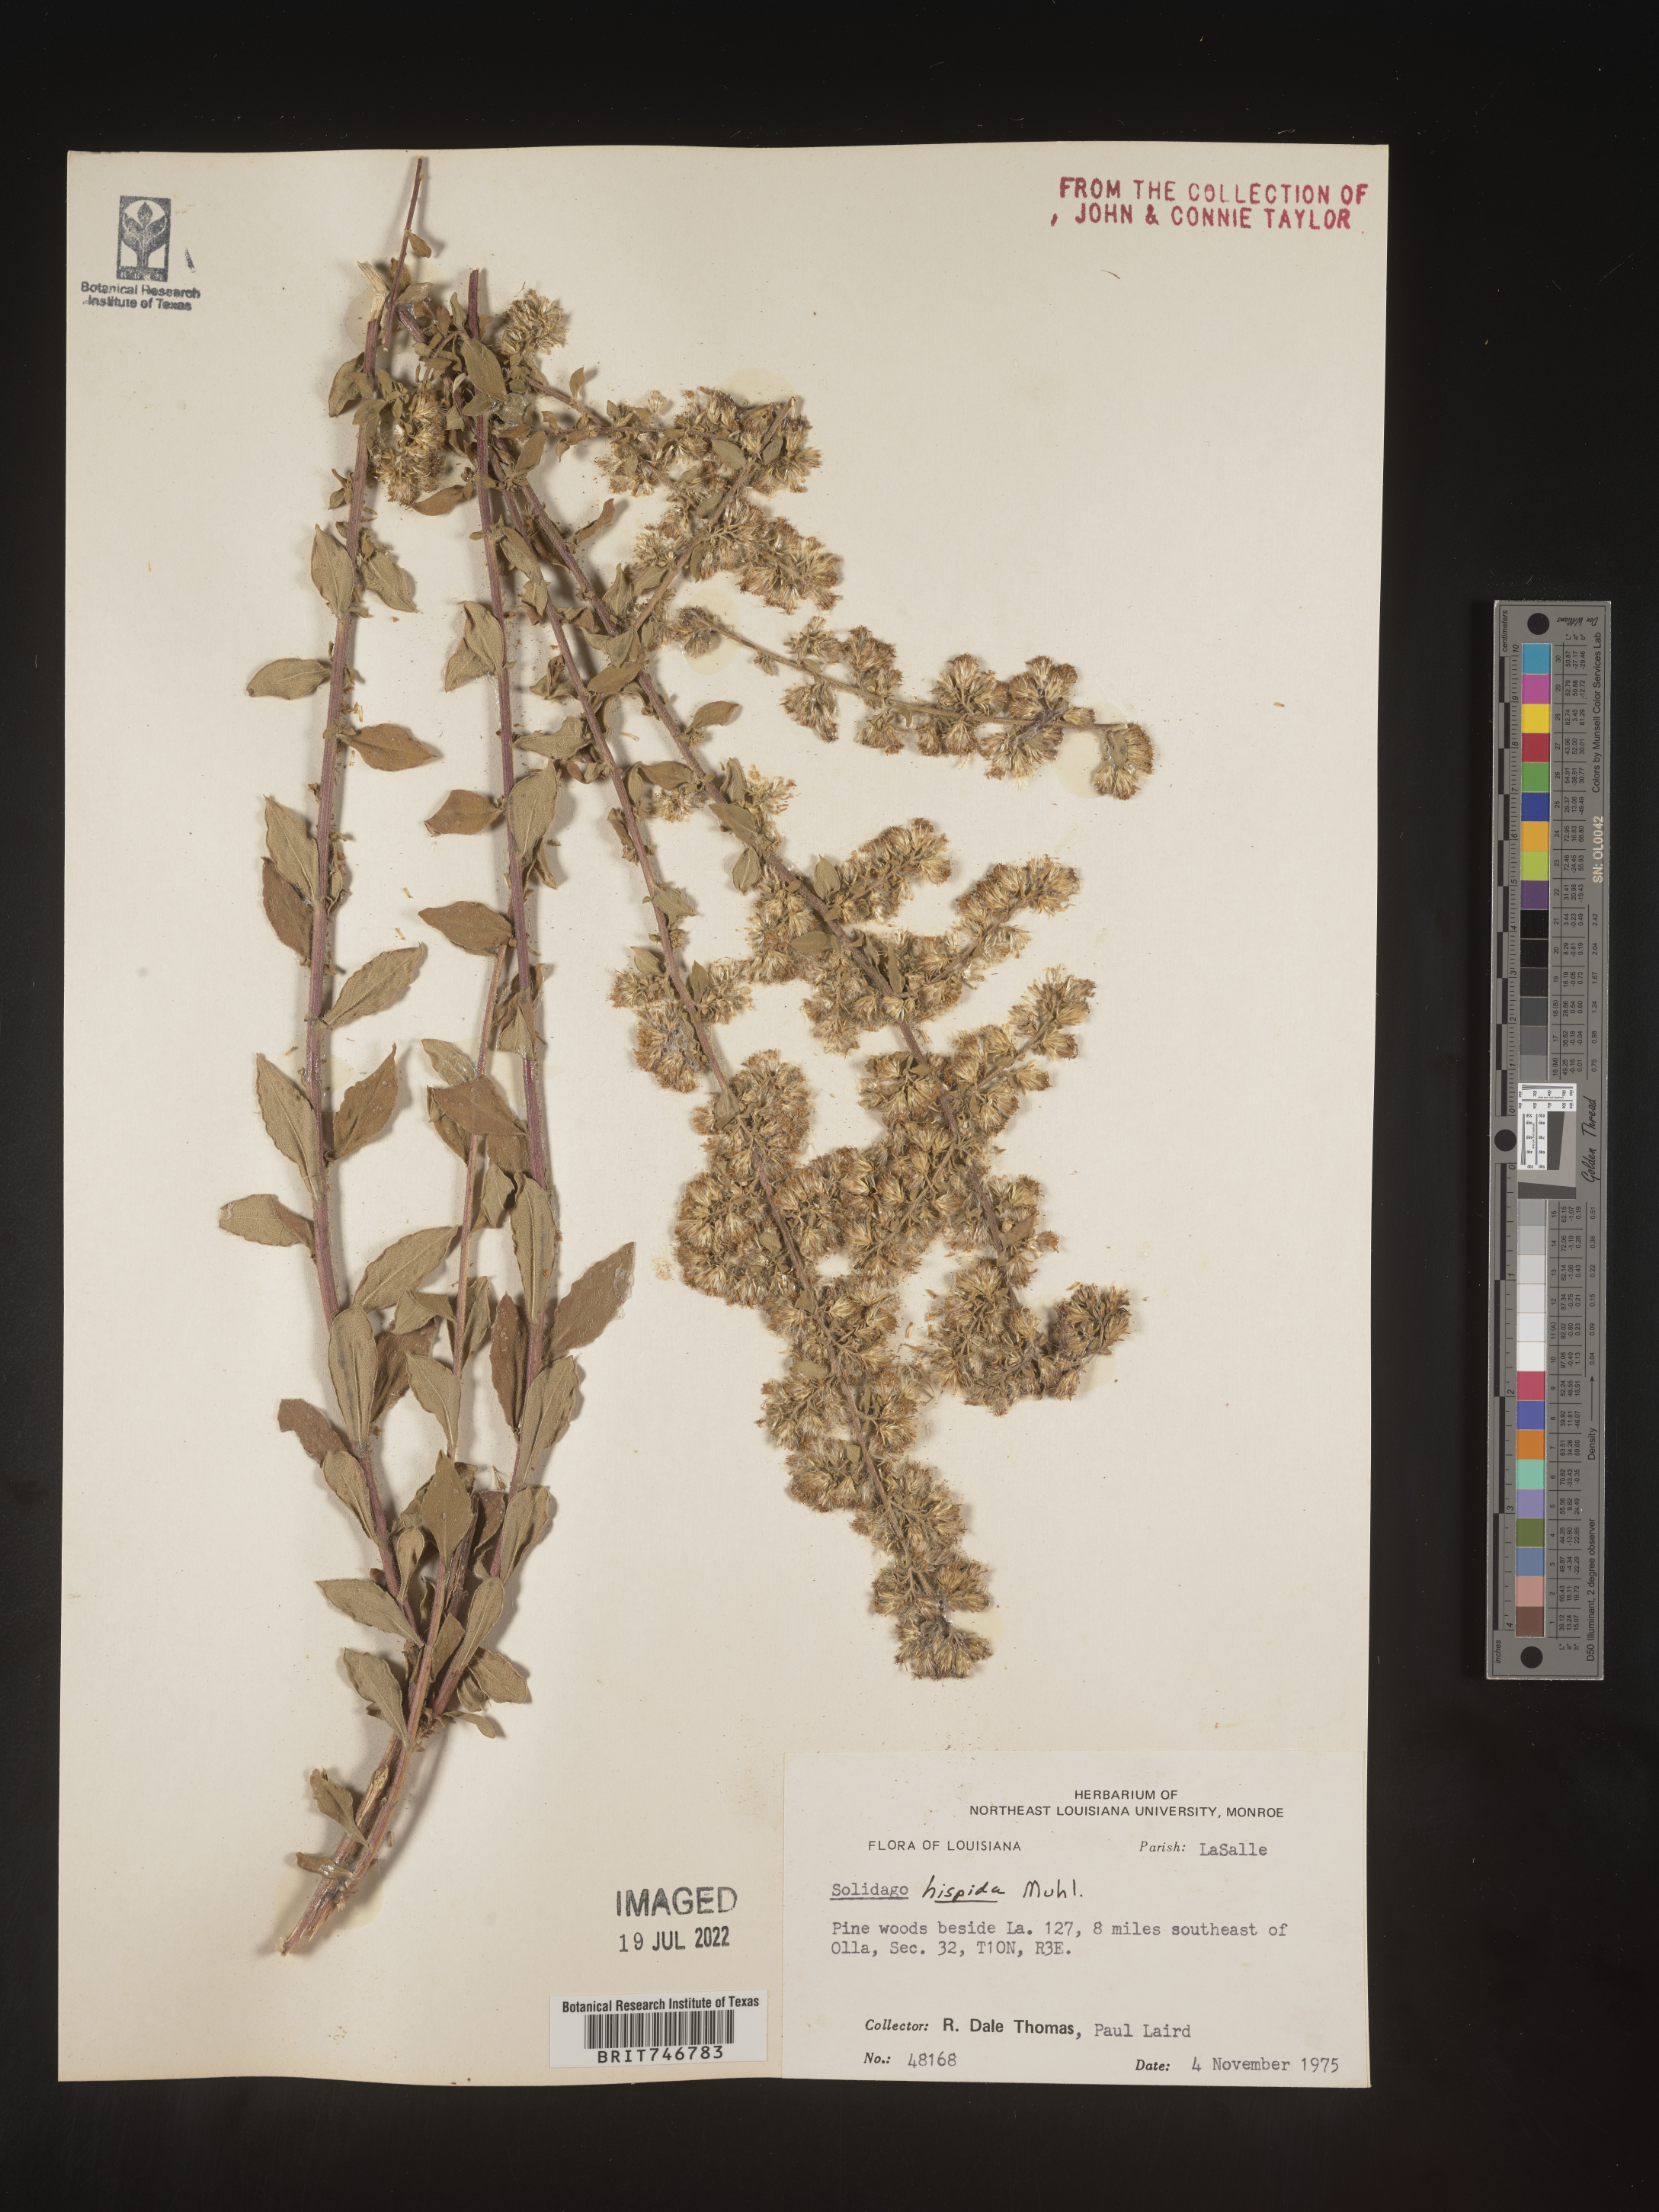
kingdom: Plantae
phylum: Tracheophyta
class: Magnoliopsida
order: Asterales
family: Asteraceae
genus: Solidago
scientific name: Solidago hispida
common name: Hairy goldenrod
